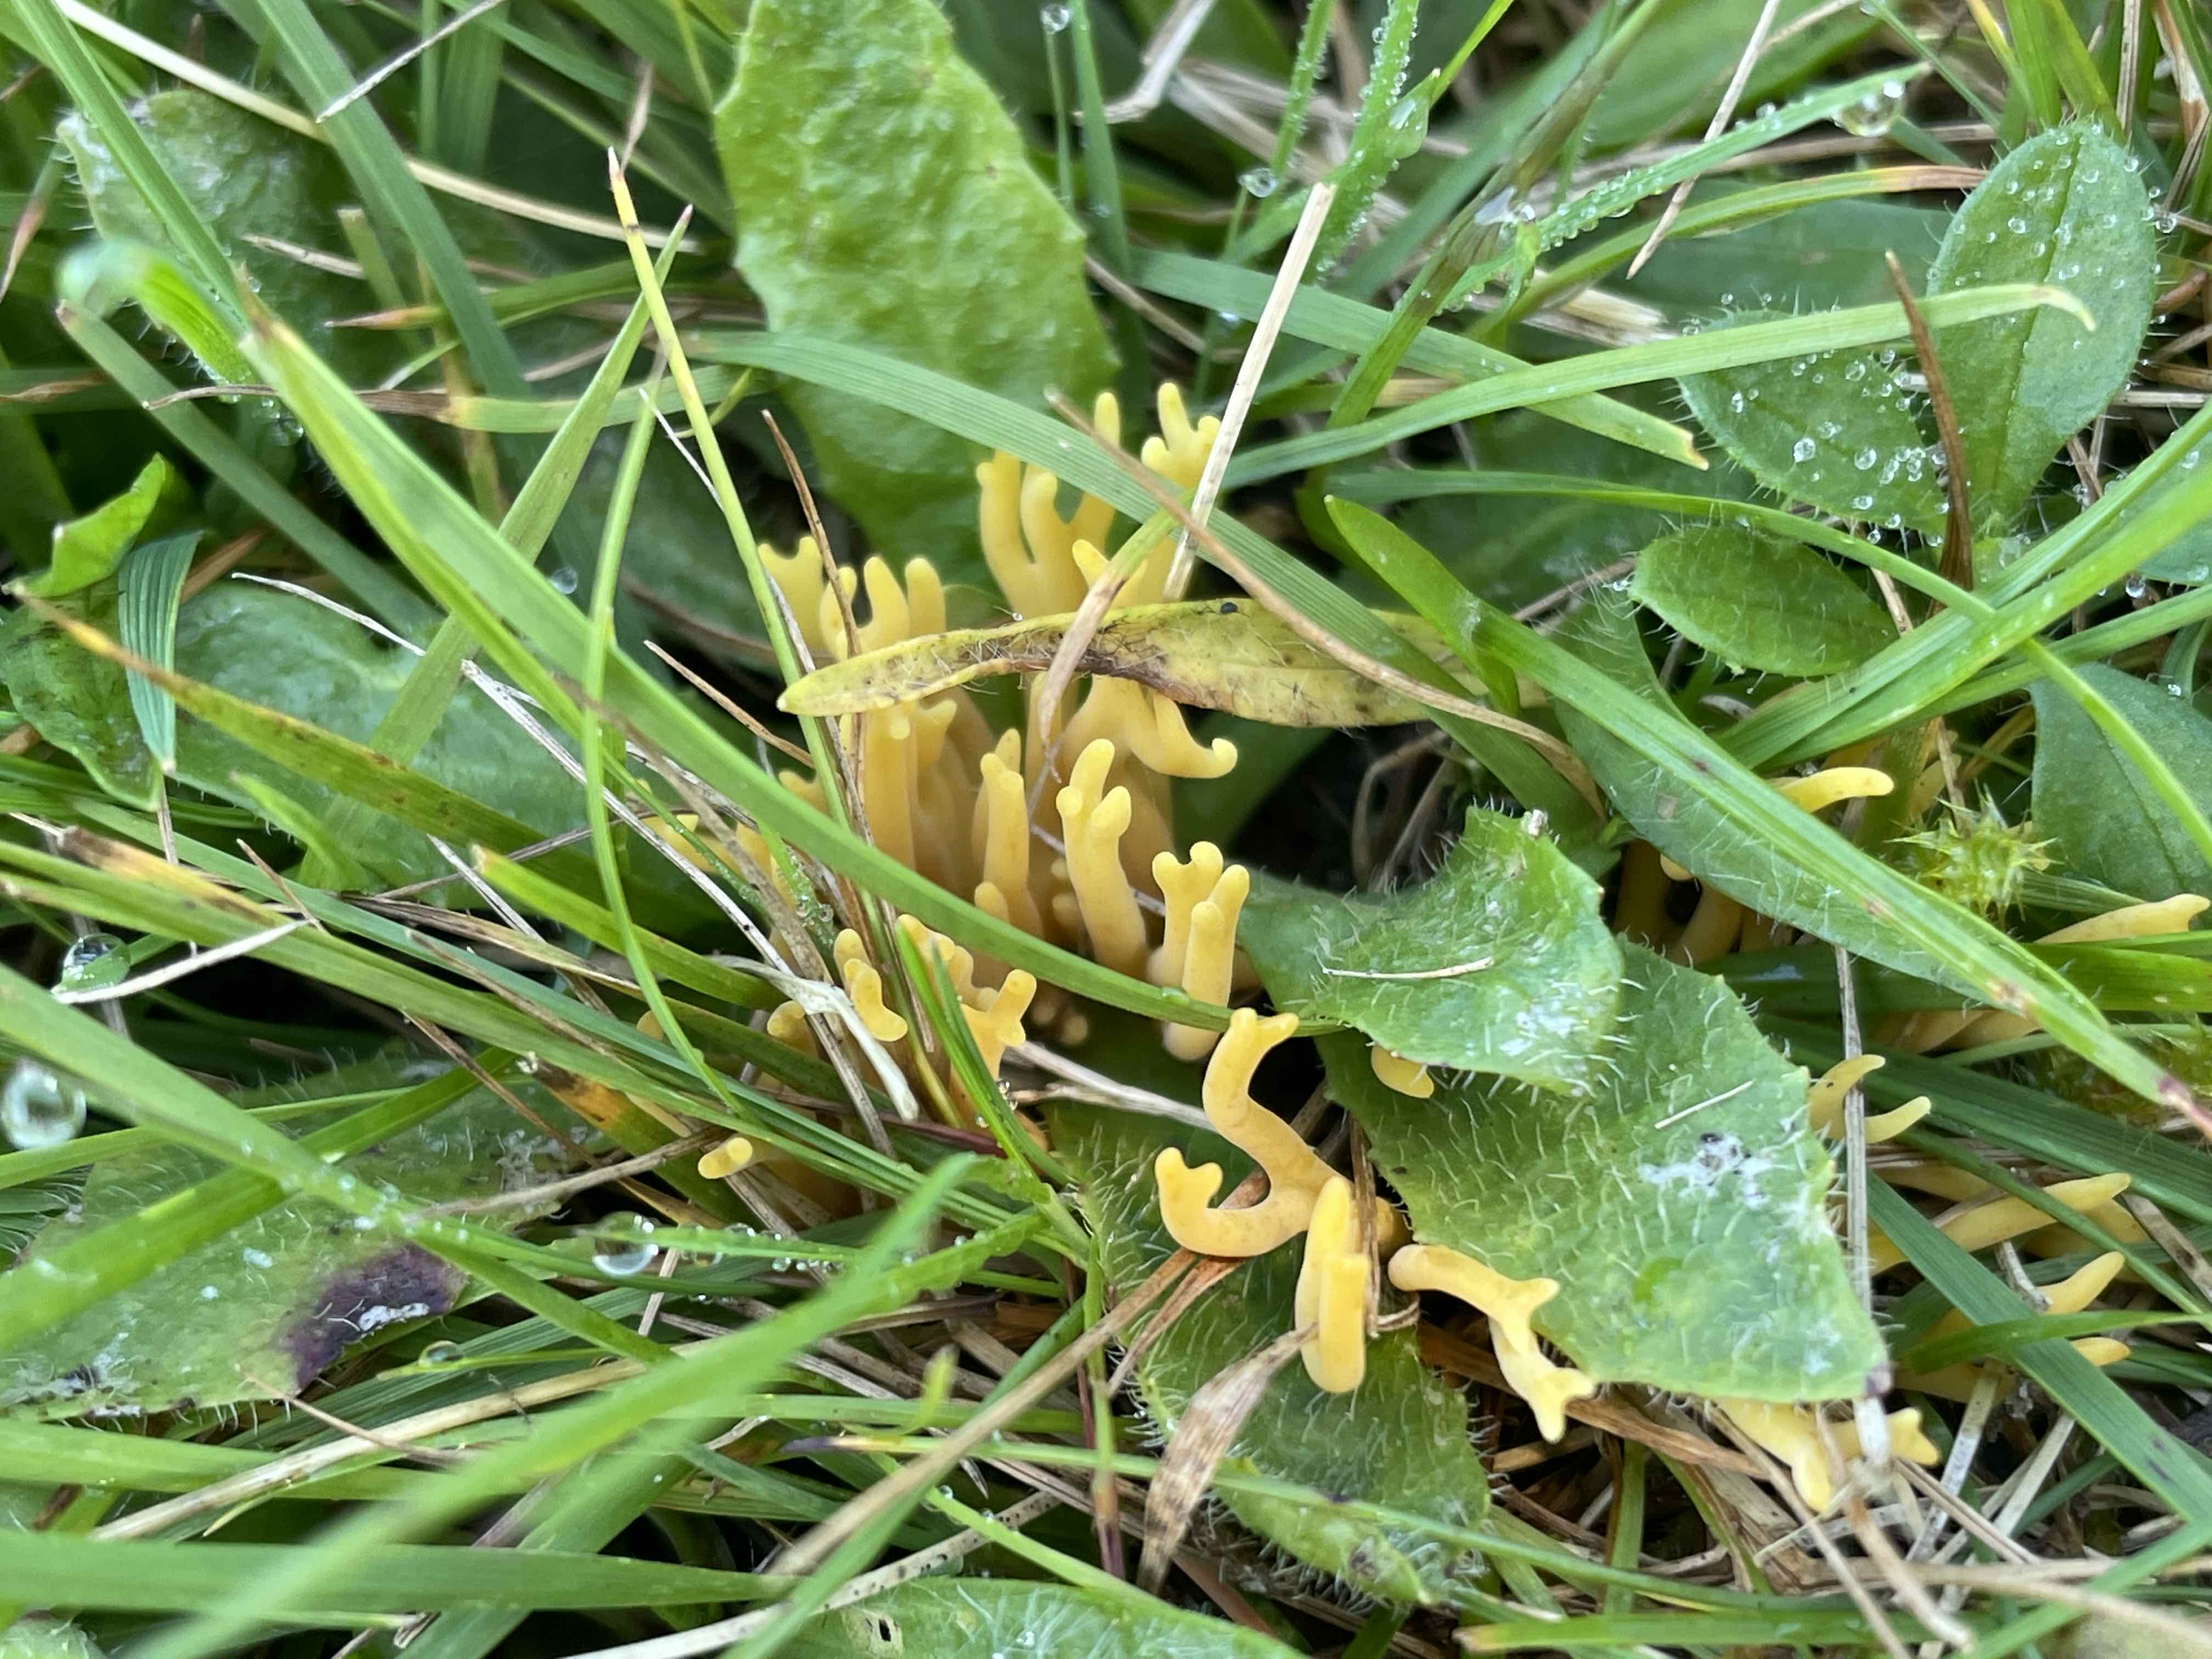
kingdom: Fungi
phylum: Basidiomycota
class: Agaricomycetes
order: Agaricales
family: Clavariaceae
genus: Clavulinopsis
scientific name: Clavulinopsis corniculata
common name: eng-køllesvamp
